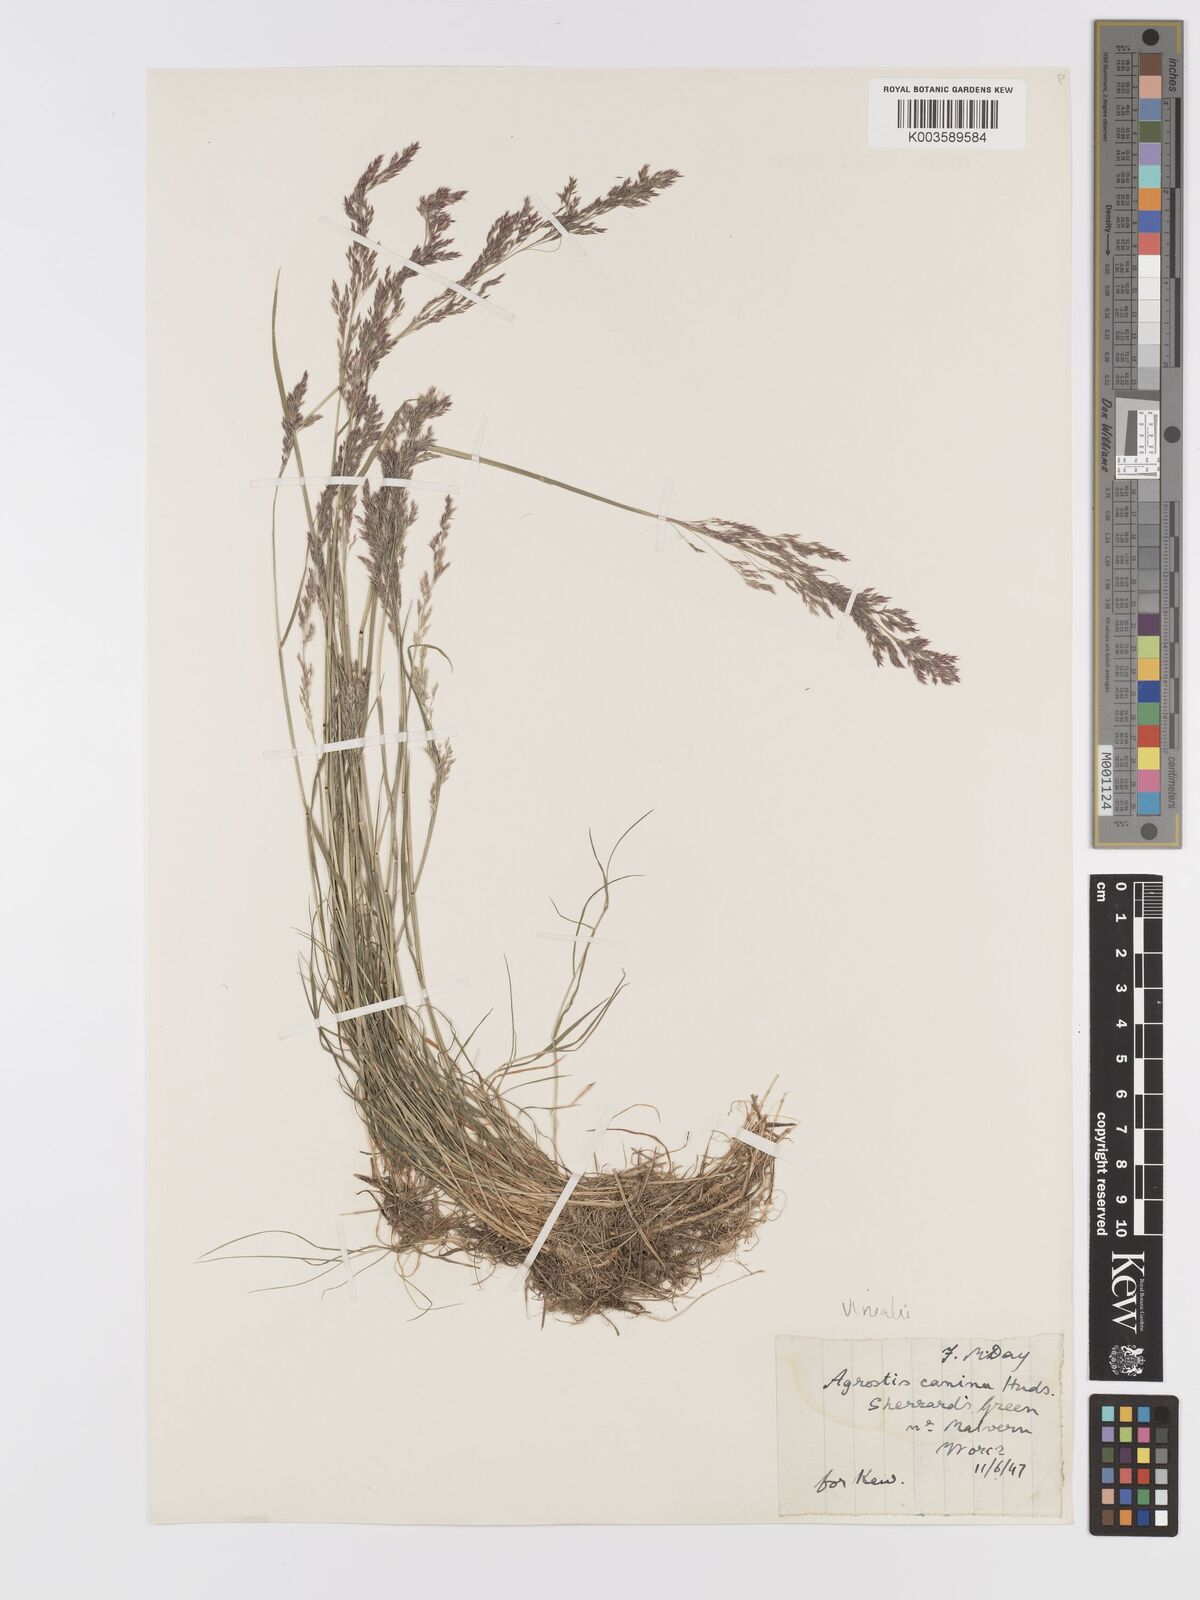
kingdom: Plantae
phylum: Tracheophyta
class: Liliopsida
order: Poales
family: Poaceae
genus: Agrostis
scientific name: Agrostis
